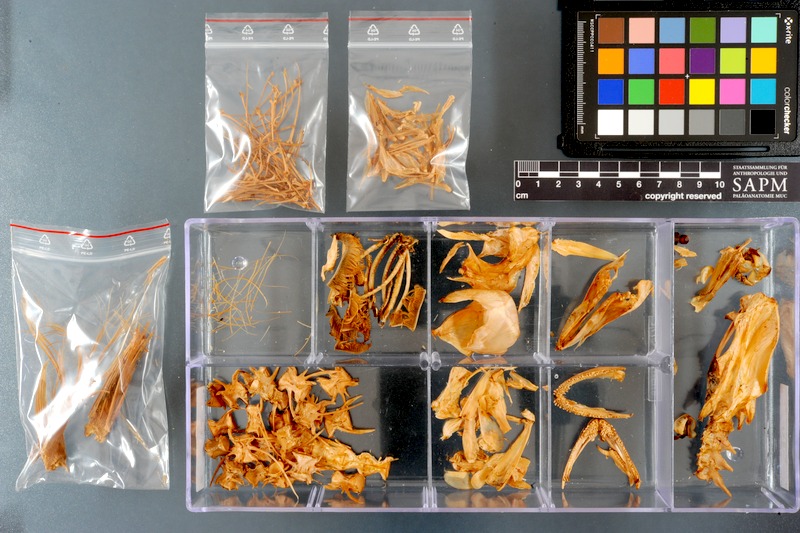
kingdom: Animalia
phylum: Chordata
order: Perciformes
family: Labridae
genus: Coris
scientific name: Coris aygula
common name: Clown coris
